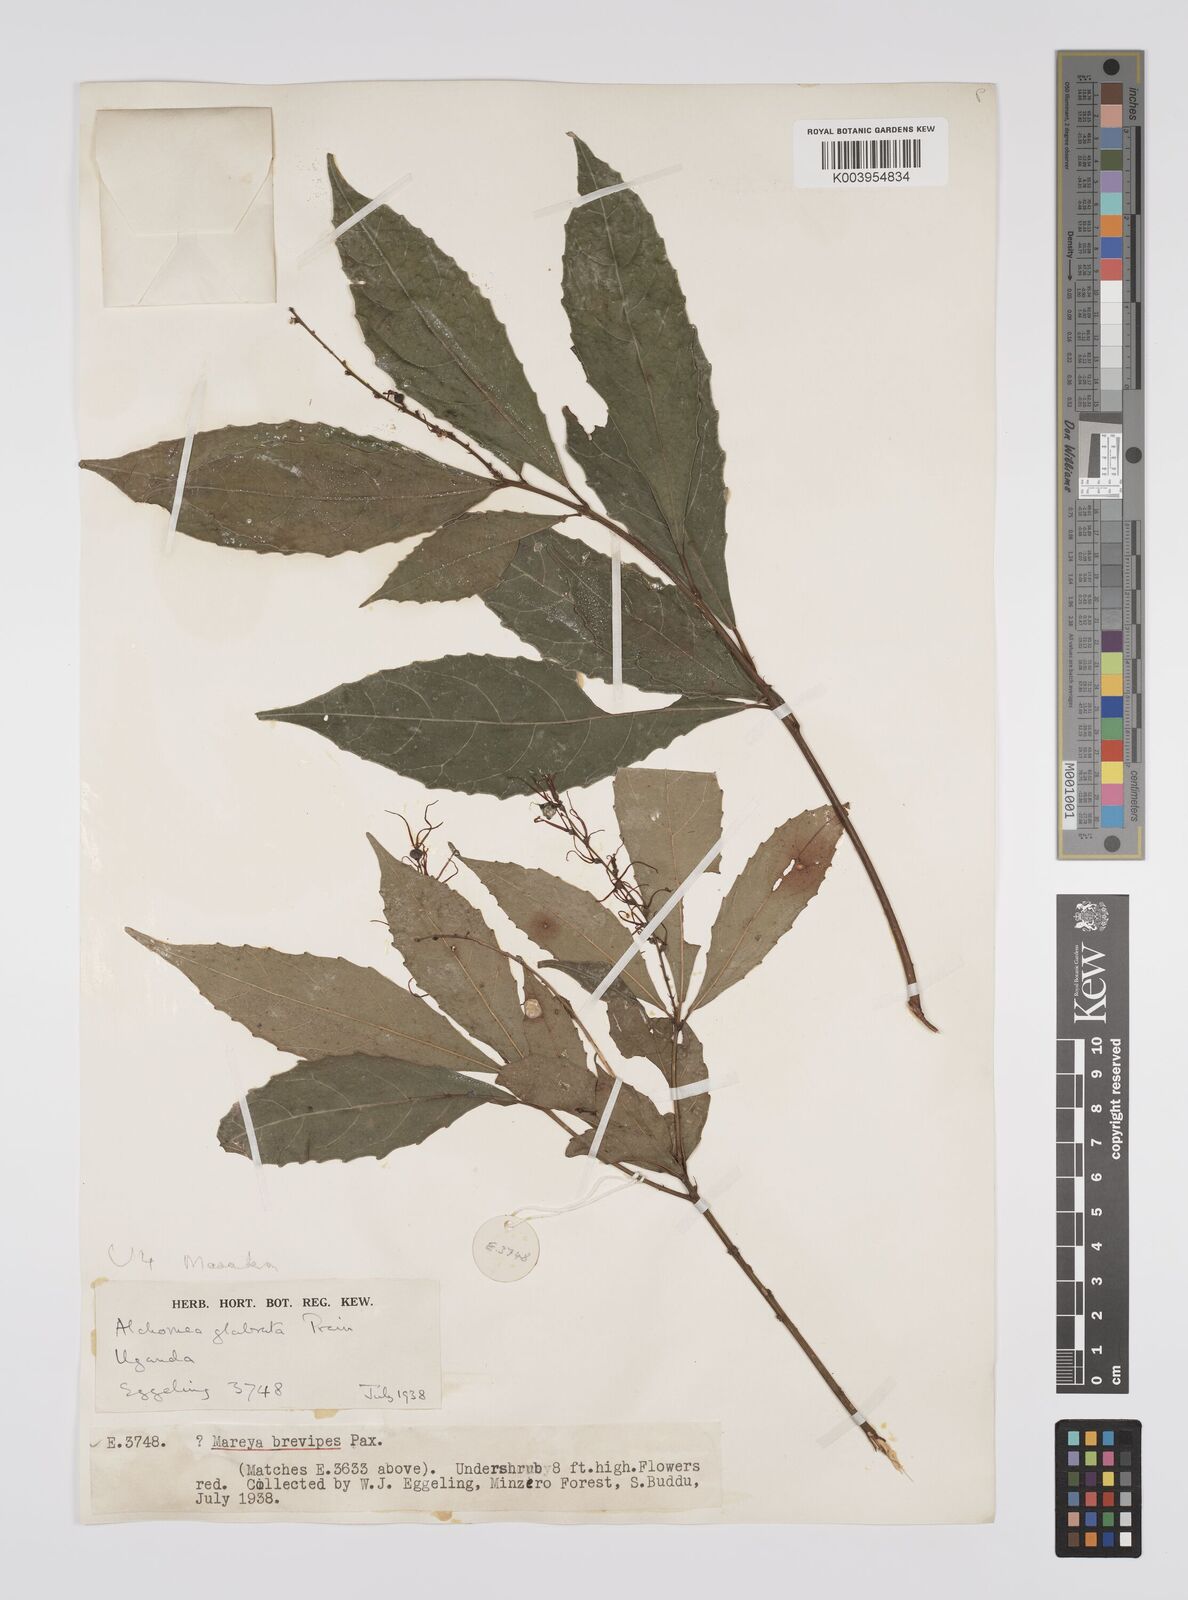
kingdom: Plantae
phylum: Tracheophyta
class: Magnoliopsida
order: Malpighiales
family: Euphorbiaceae
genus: Alchornea
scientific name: Alchornea hirtella
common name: Forest bead-string
